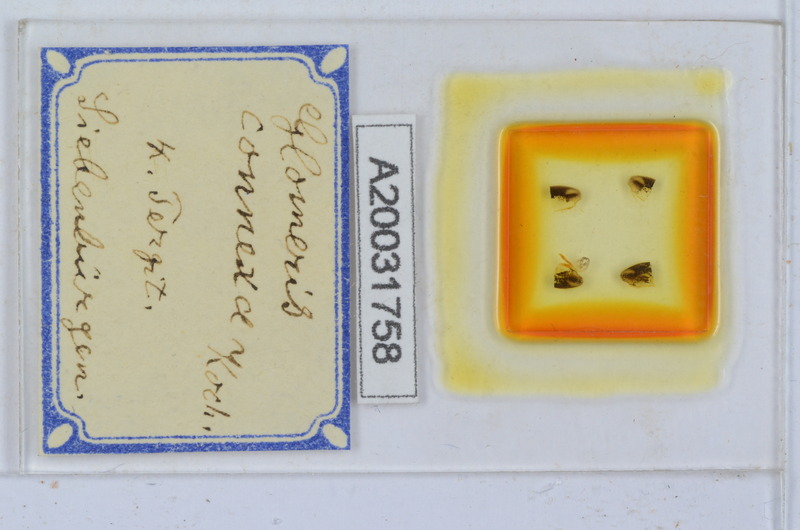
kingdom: Animalia
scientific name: Animalia
